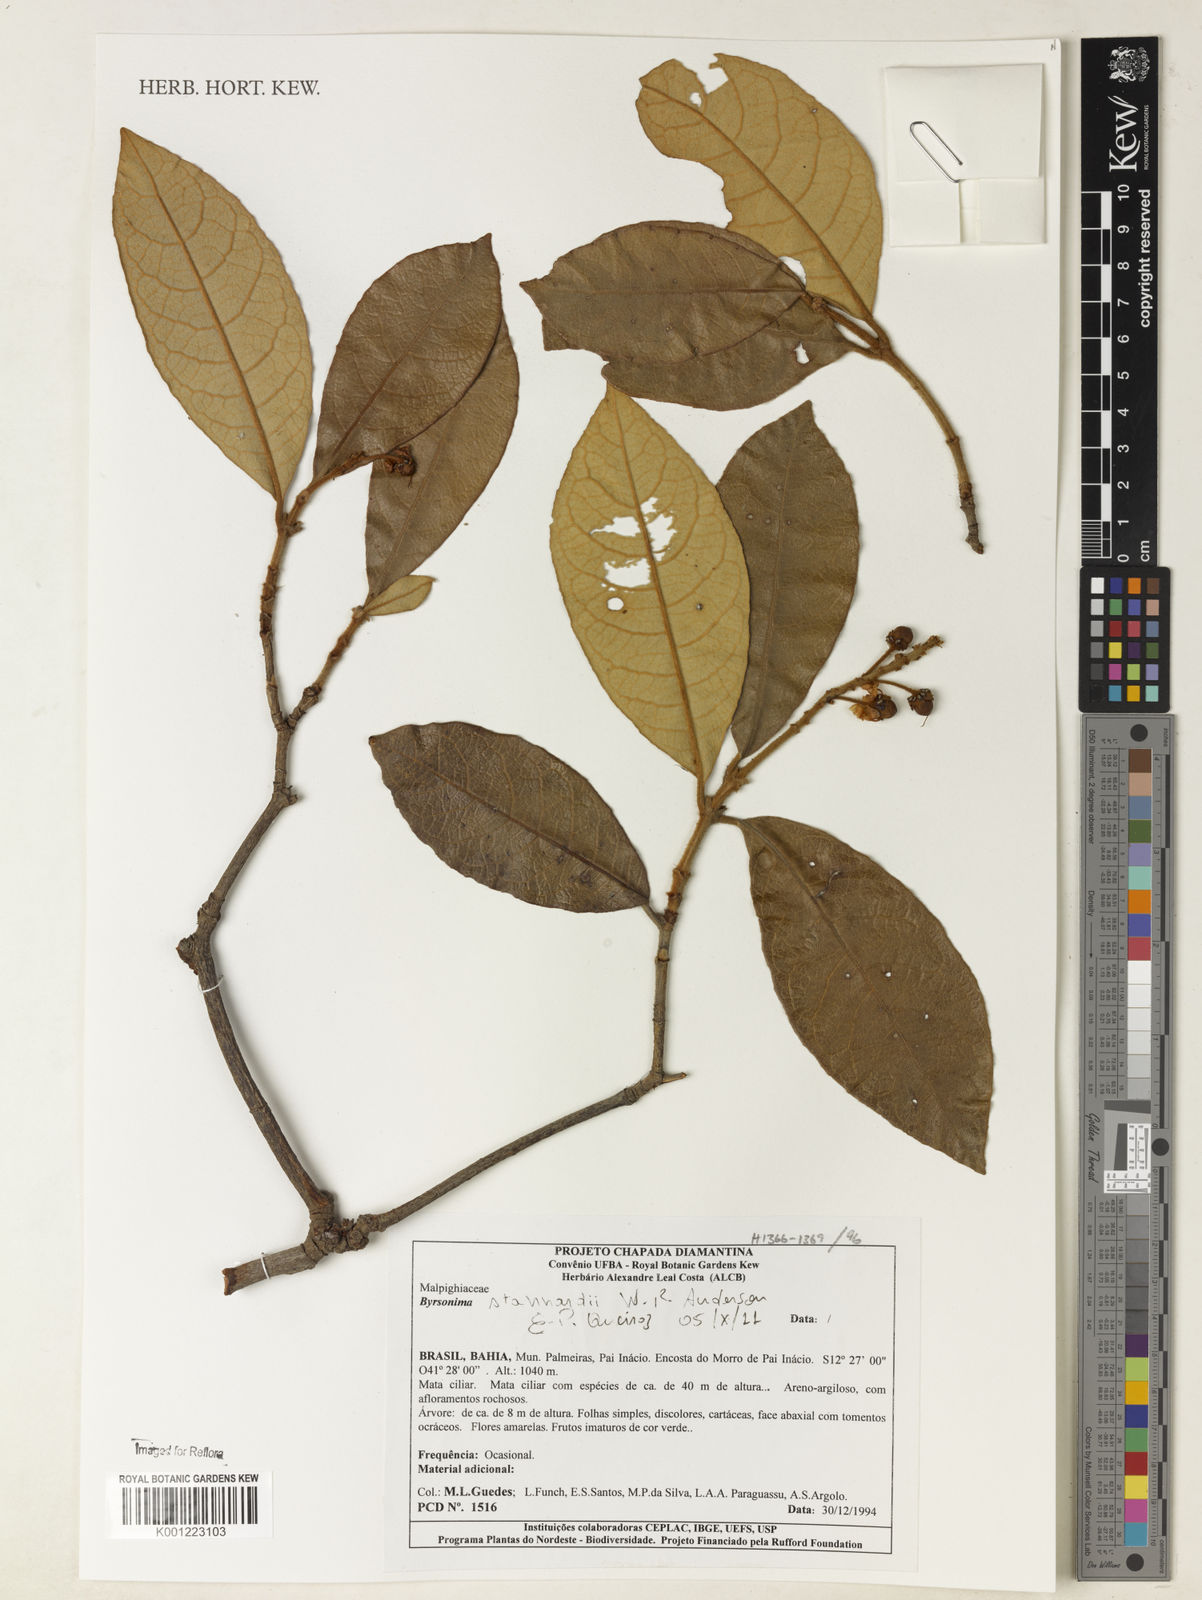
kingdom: Plantae
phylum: Tracheophyta
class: Magnoliopsida
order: Malpighiales
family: Malpighiaceae
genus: Byrsonima
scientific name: Byrsonima stannardii
